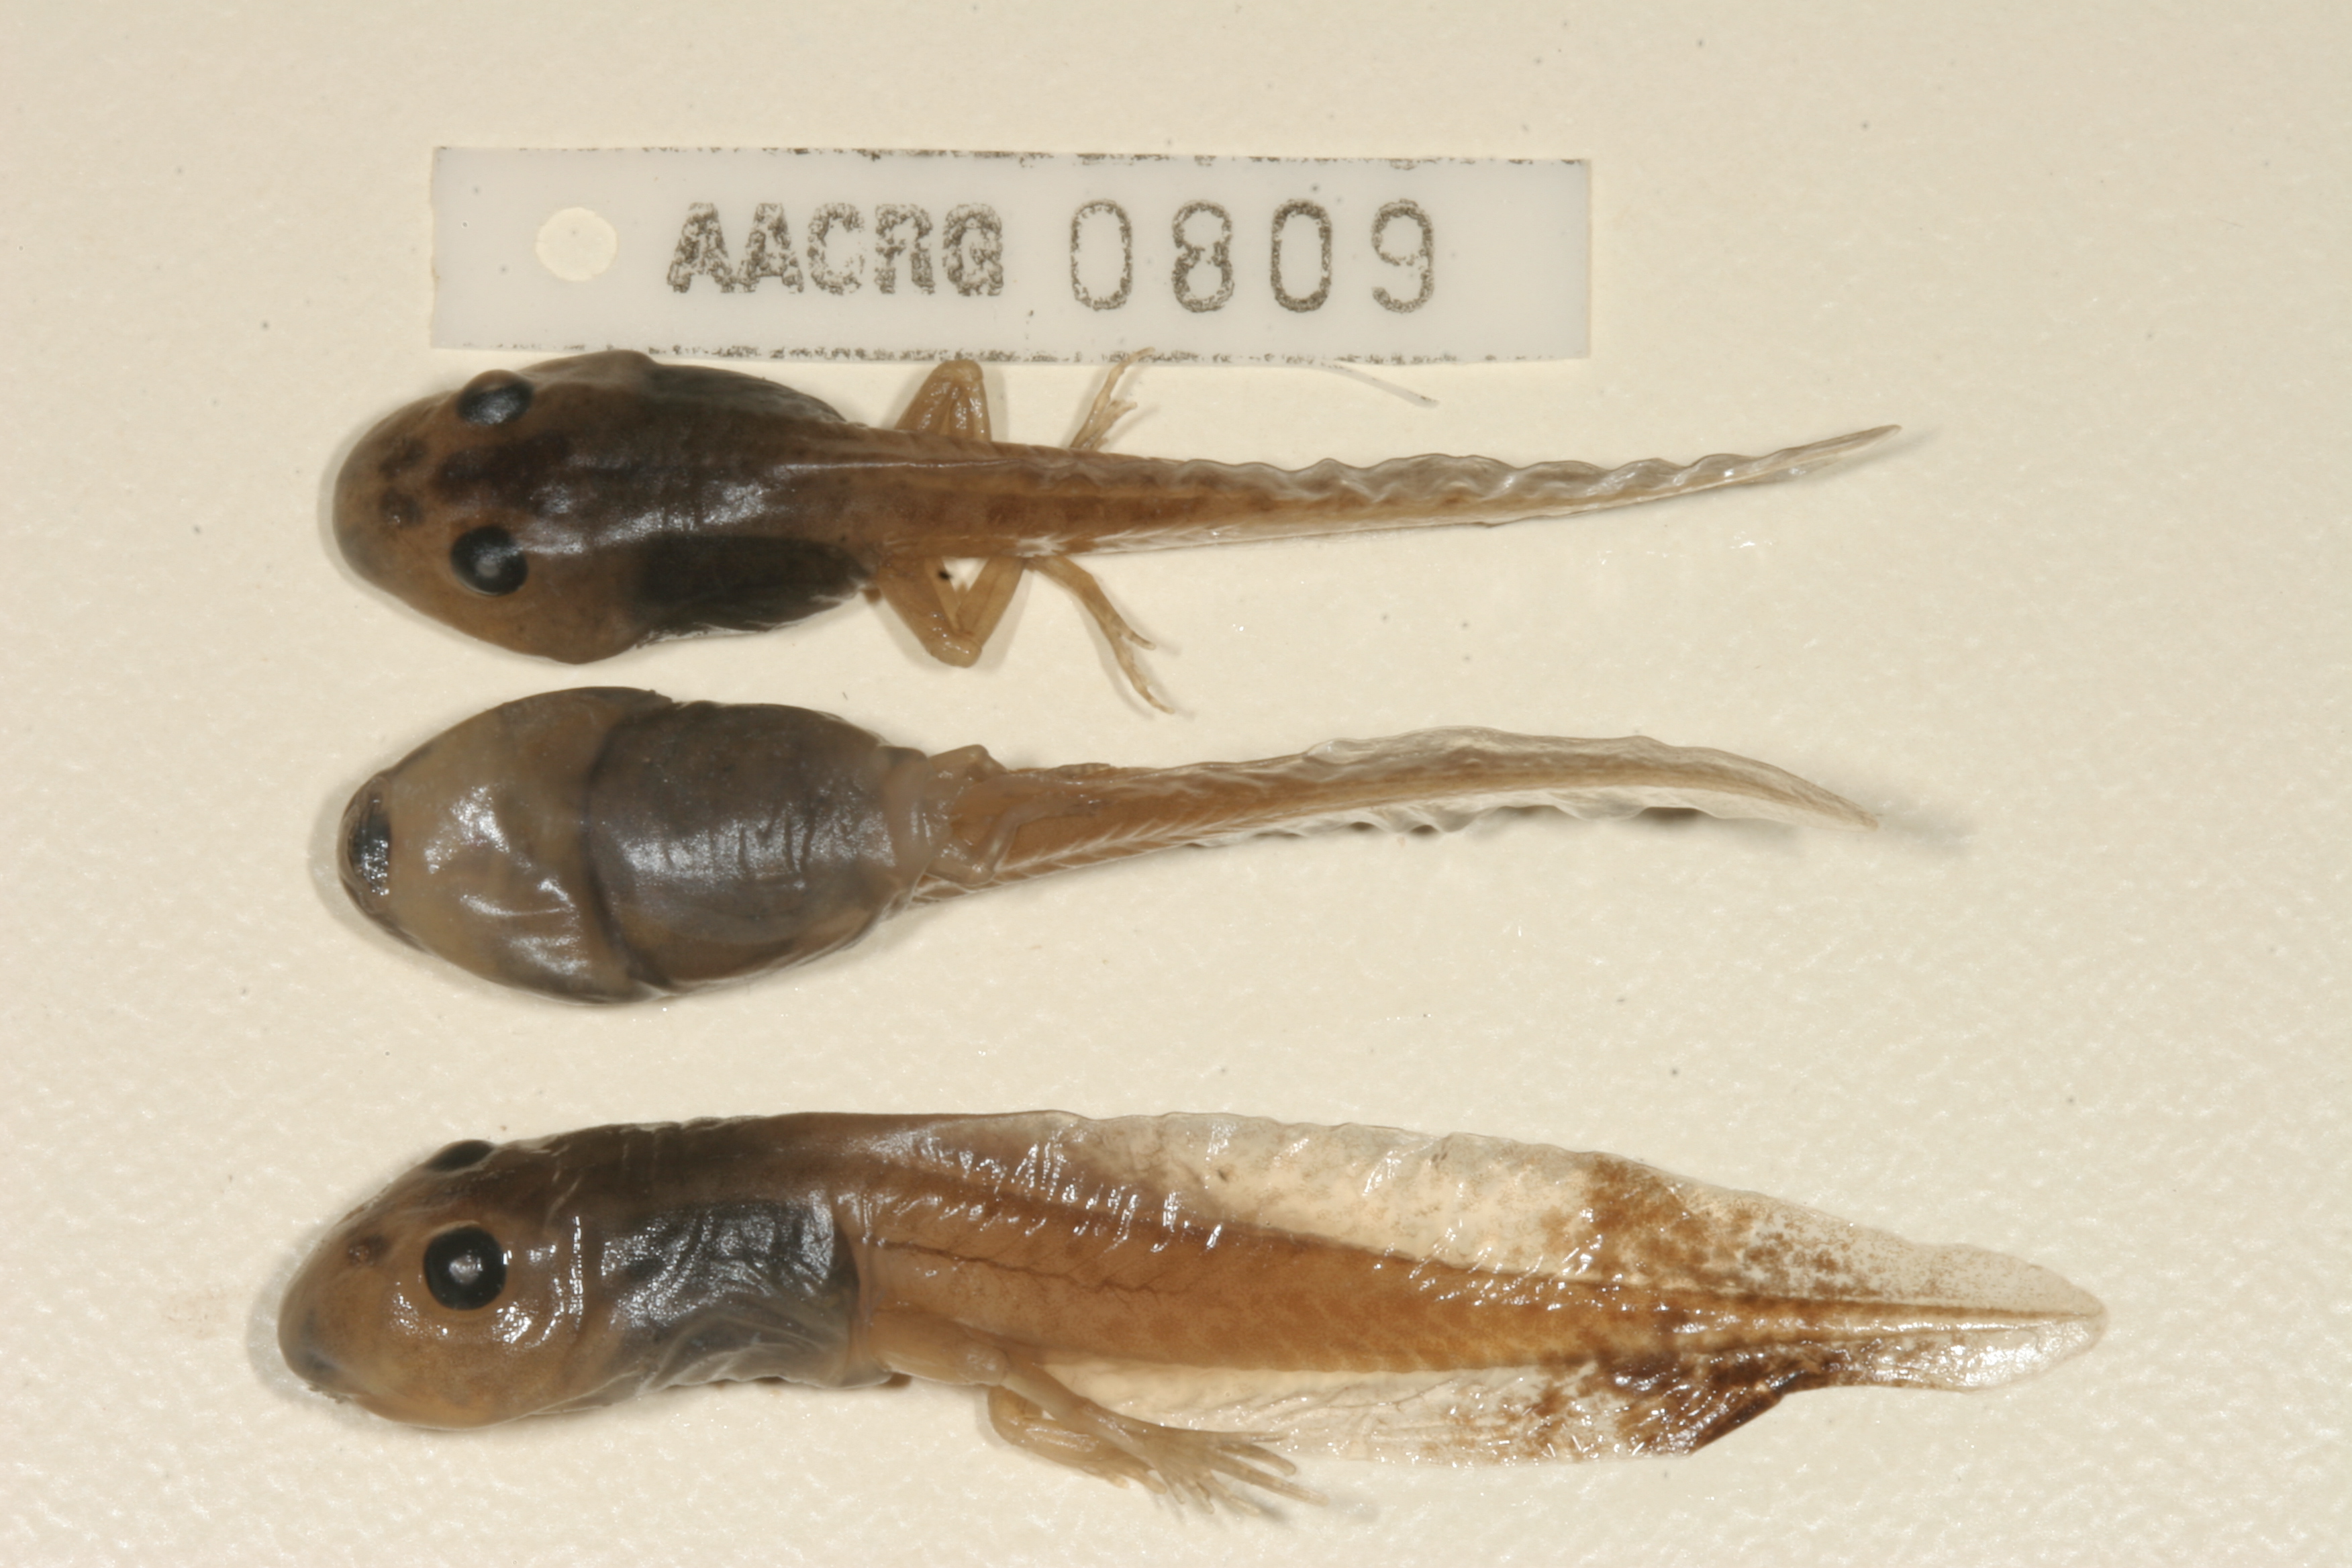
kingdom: Animalia
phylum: Chordata
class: Amphibia
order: Anura
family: Pyxicephalidae
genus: Strongylopus
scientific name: Strongylopus grayii
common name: Gray's stream frog
